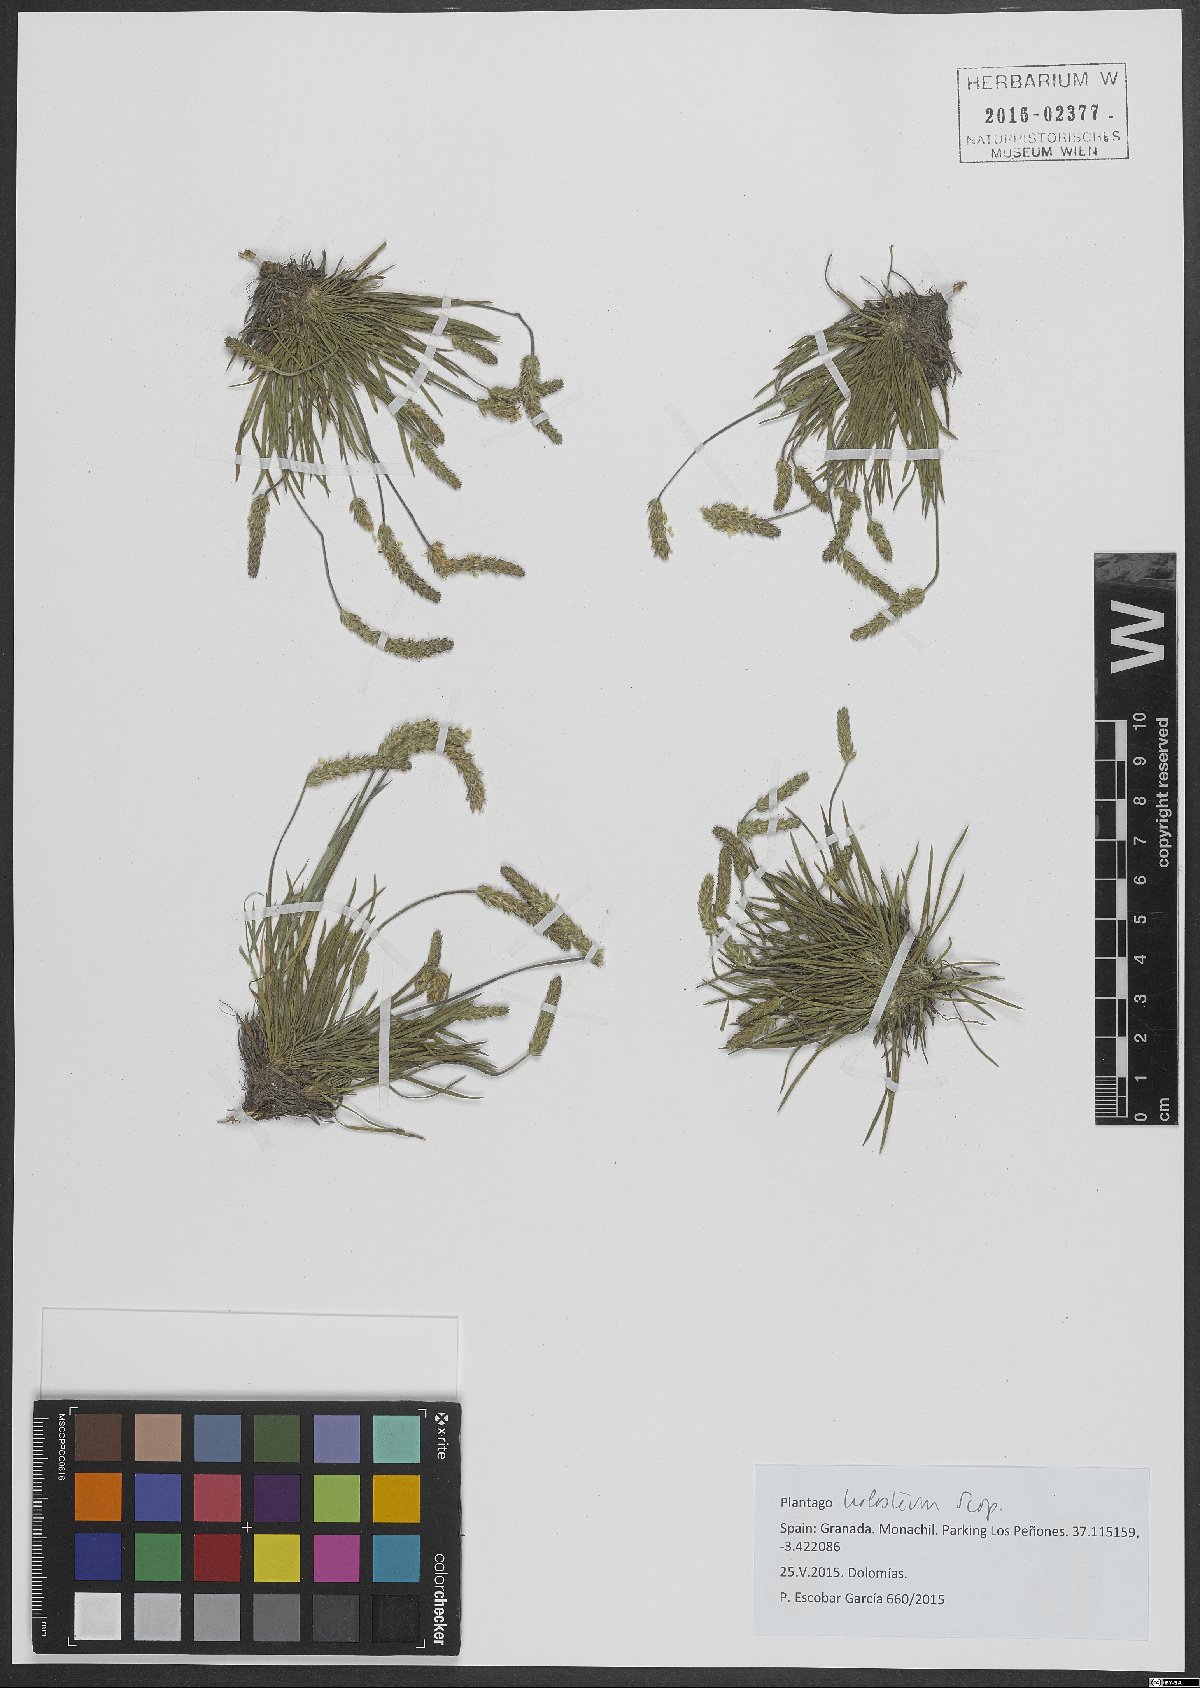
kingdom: Plantae
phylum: Tracheophyta
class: Magnoliopsida
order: Lamiales
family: Plantaginaceae
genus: Plantago
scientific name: Plantago subulata
